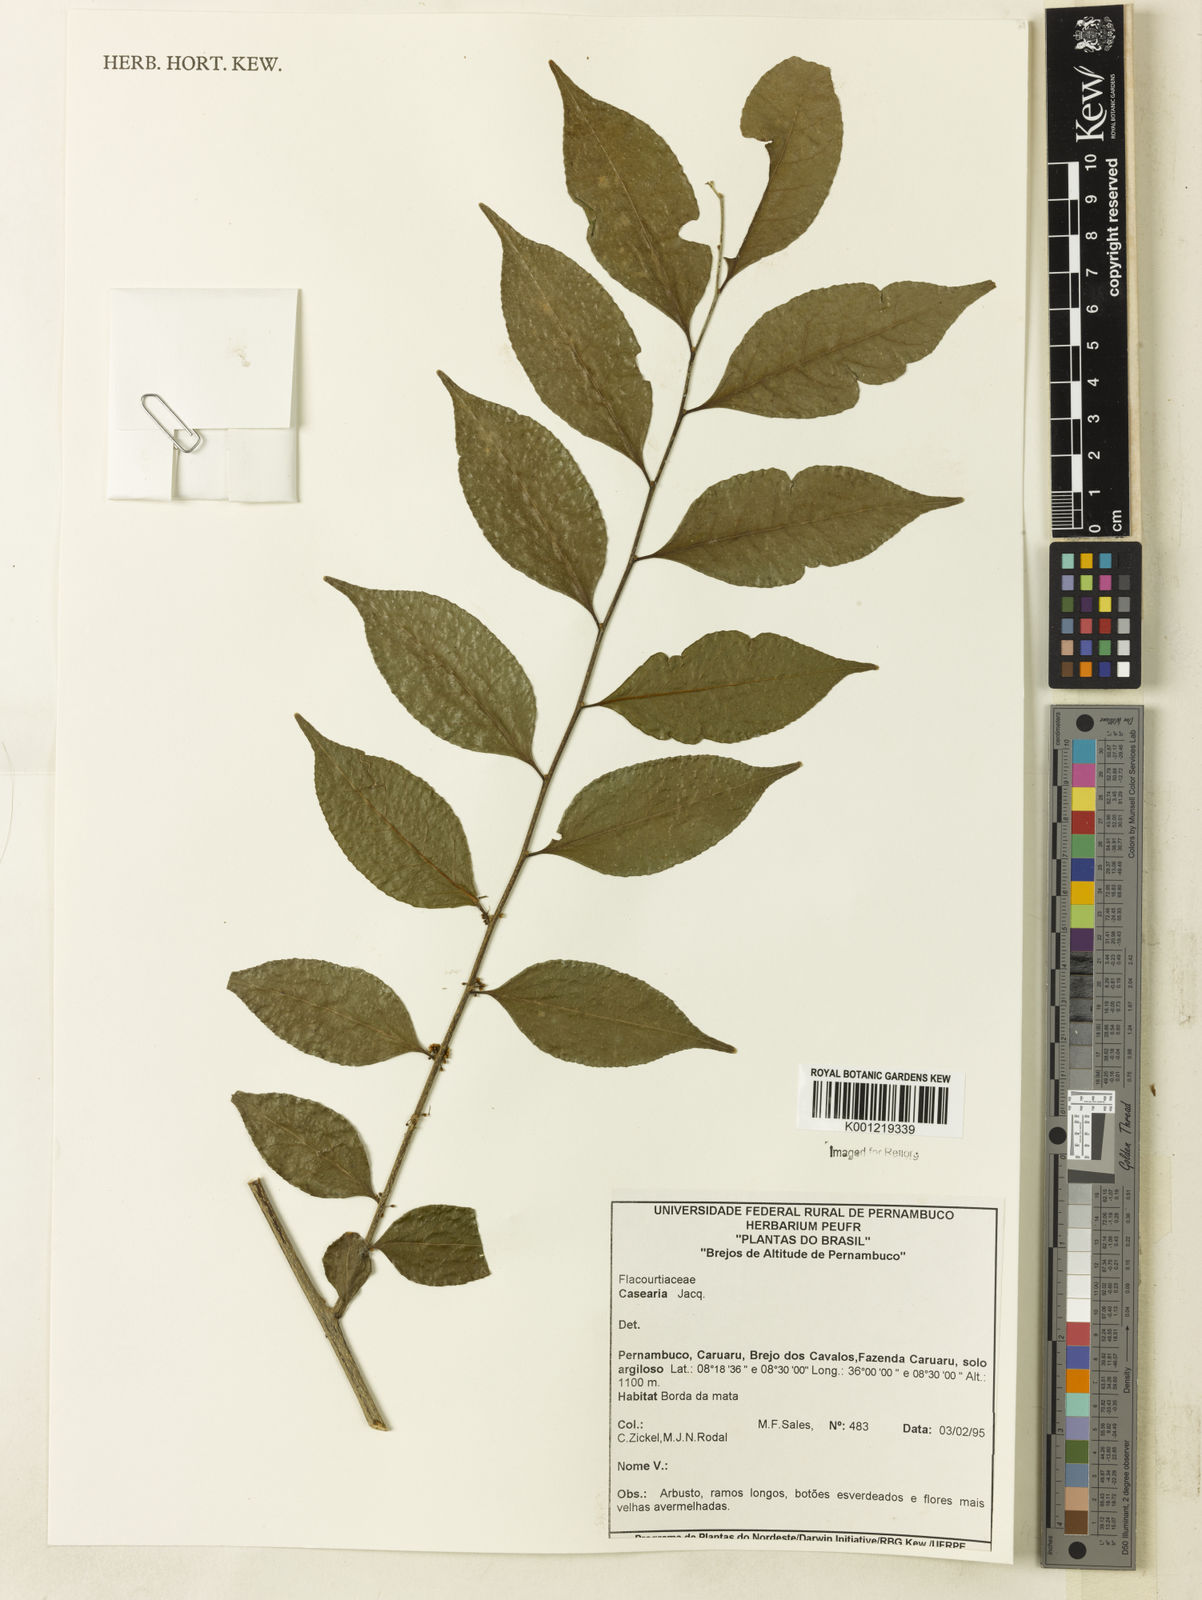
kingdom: Plantae
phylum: Tracheophyta
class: Magnoliopsida
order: Malpighiales
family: Salicaceae
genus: Casearia
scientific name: Casearia
